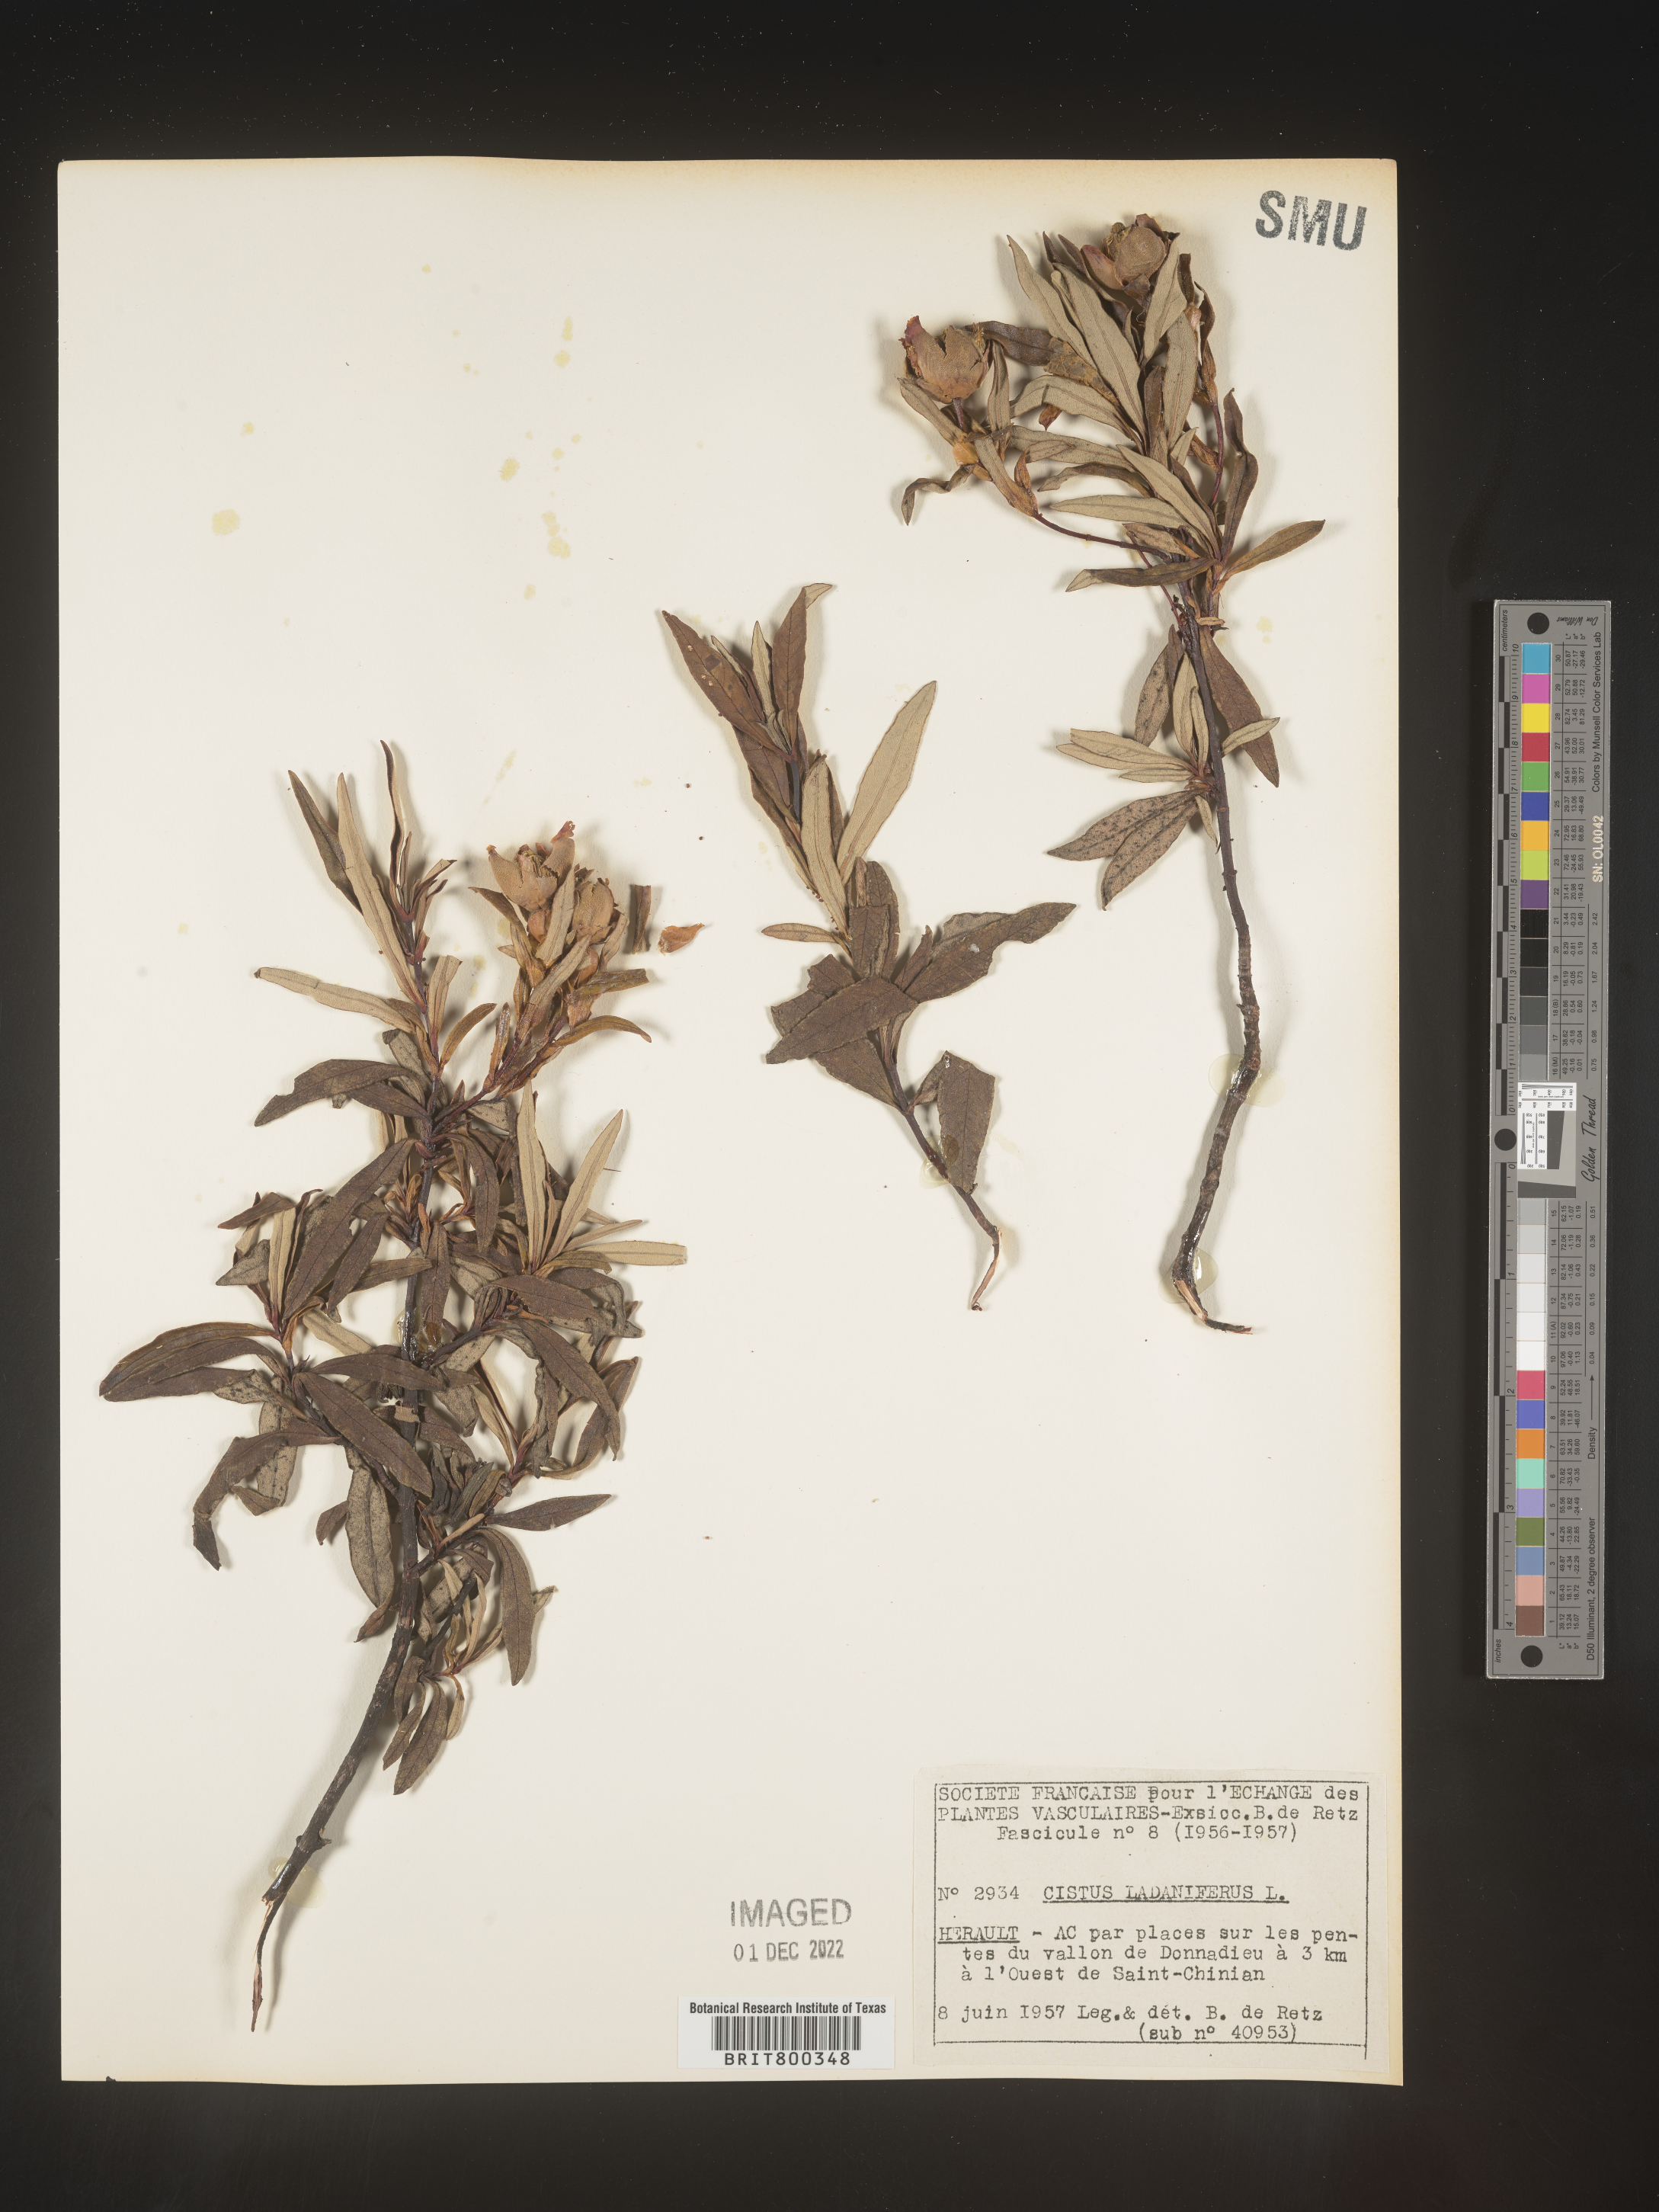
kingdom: Plantae
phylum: Tracheophyta
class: Magnoliopsida
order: Malvales
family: Cistaceae
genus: Cistus
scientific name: Cistus
